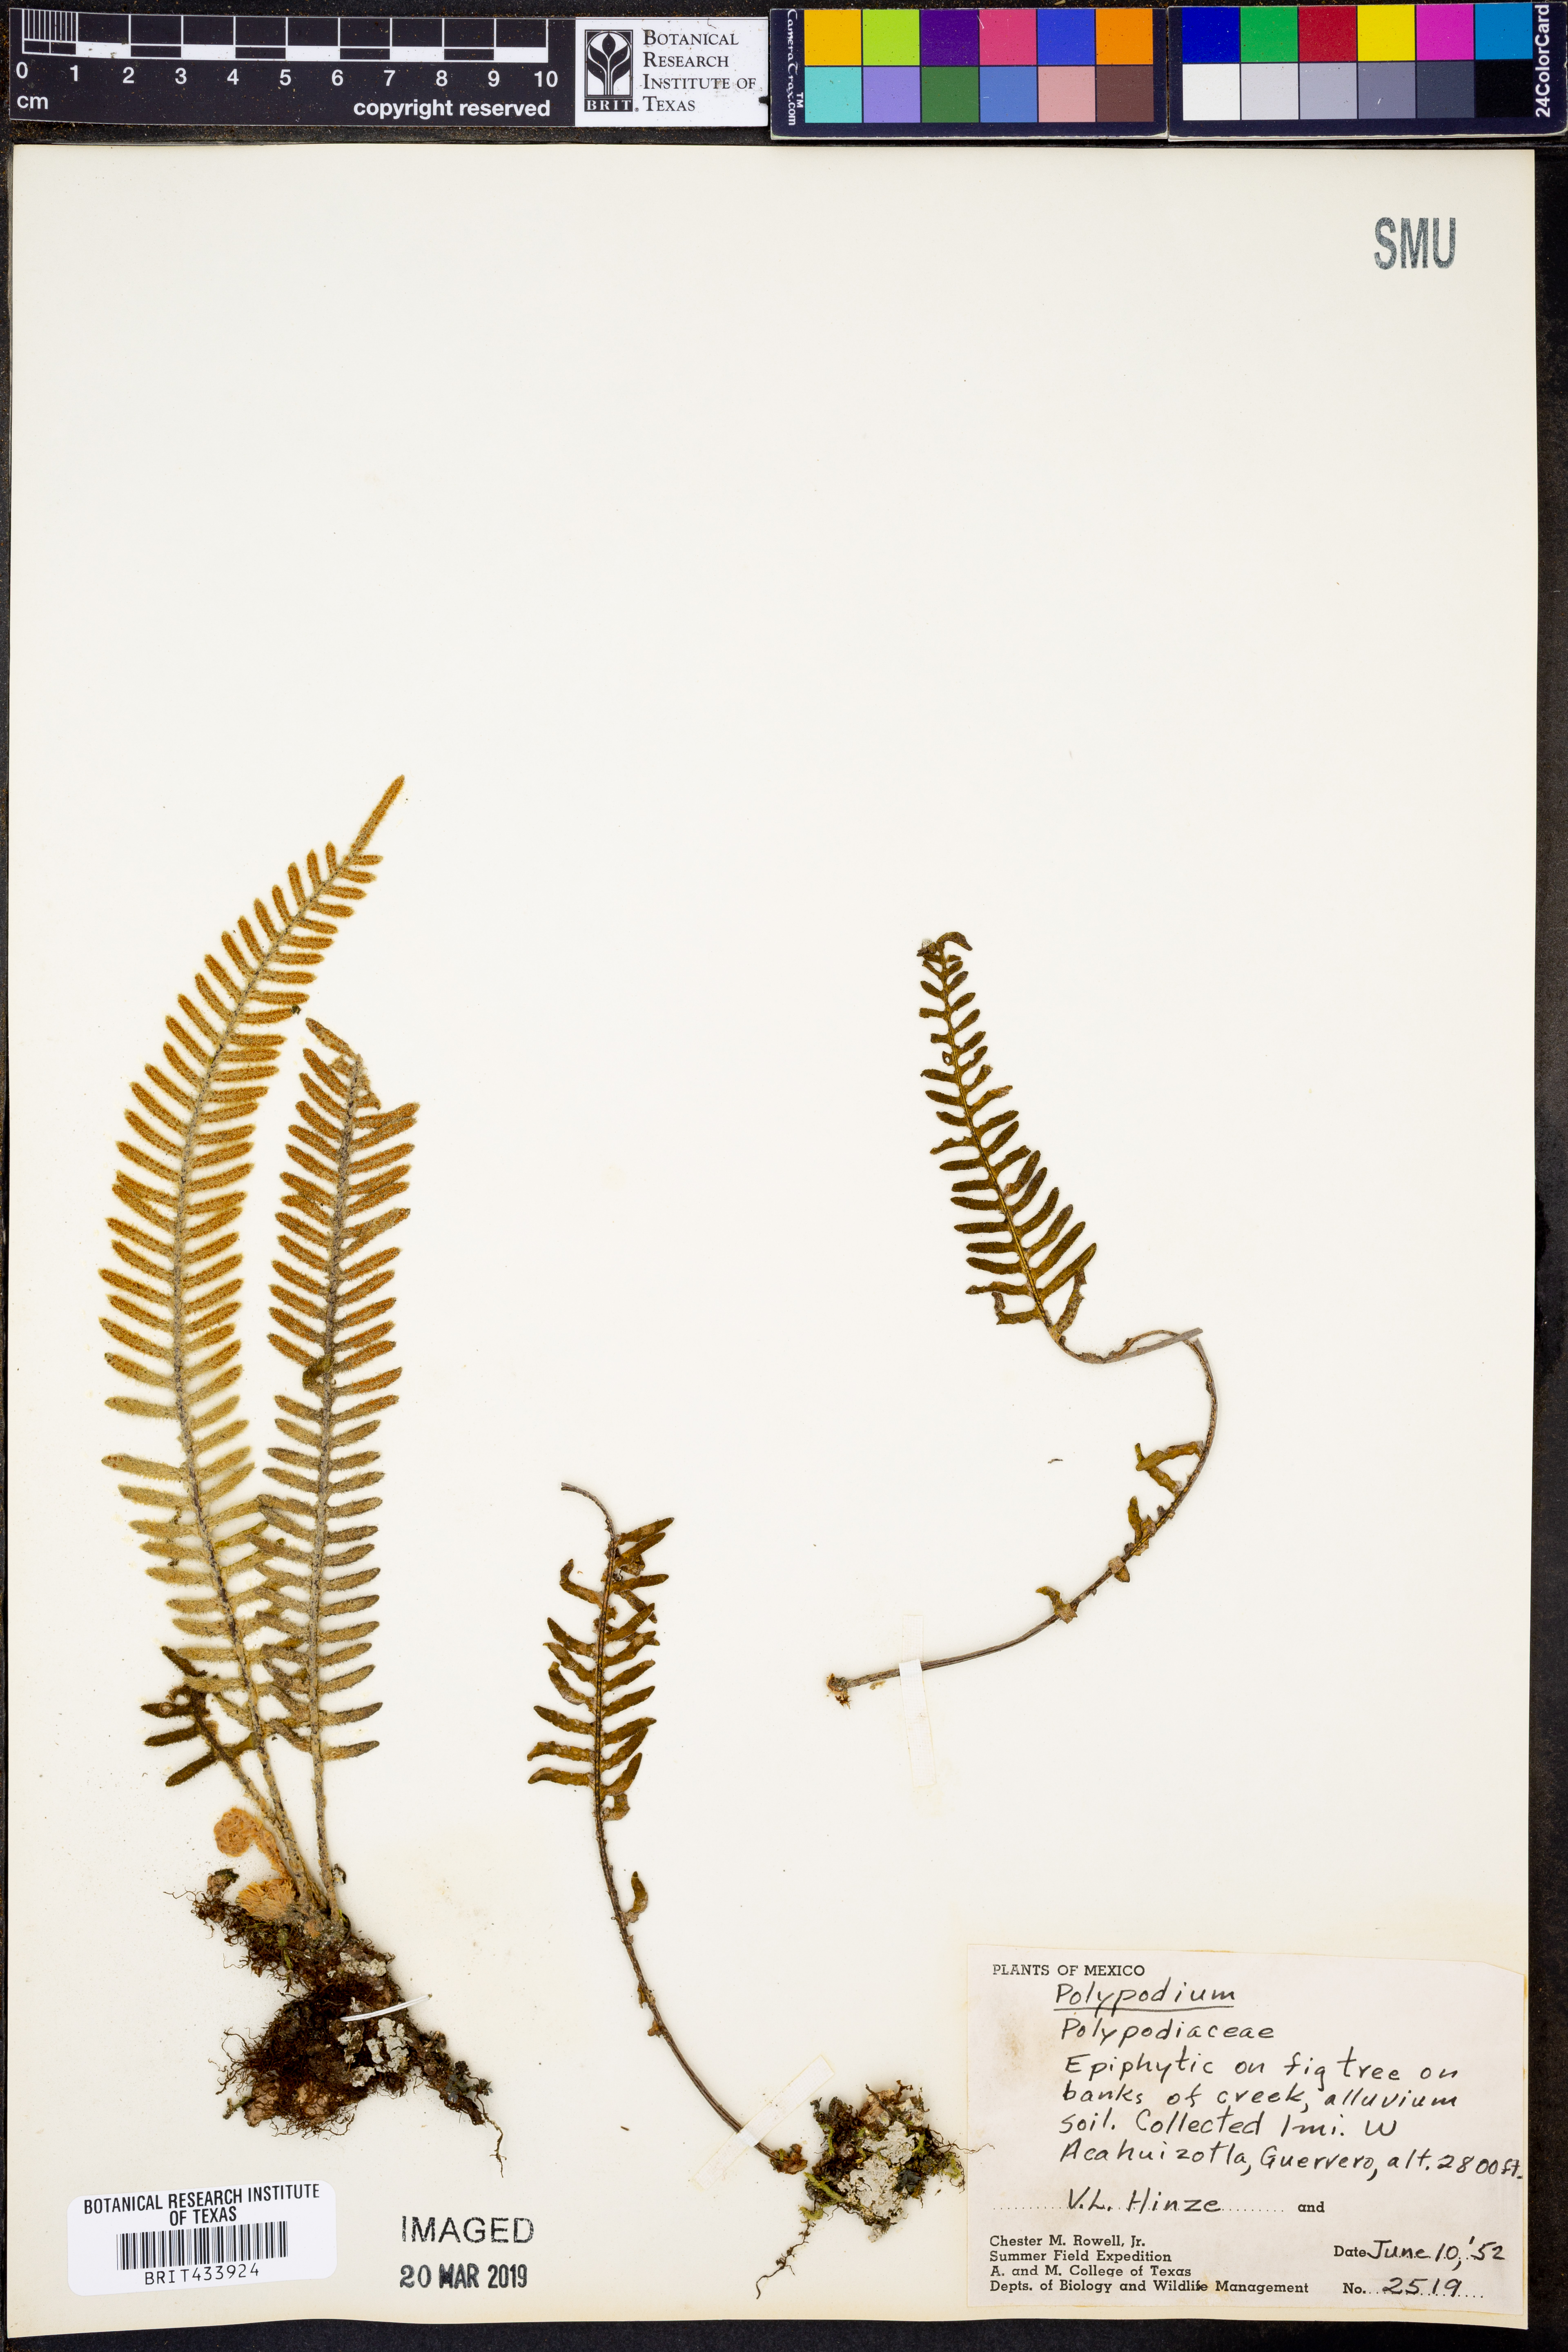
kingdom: Plantae
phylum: Tracheophyta
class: Polypodiopsida
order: Polypodiales
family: Polypodiaceae
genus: Polypodium
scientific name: Polypodium
